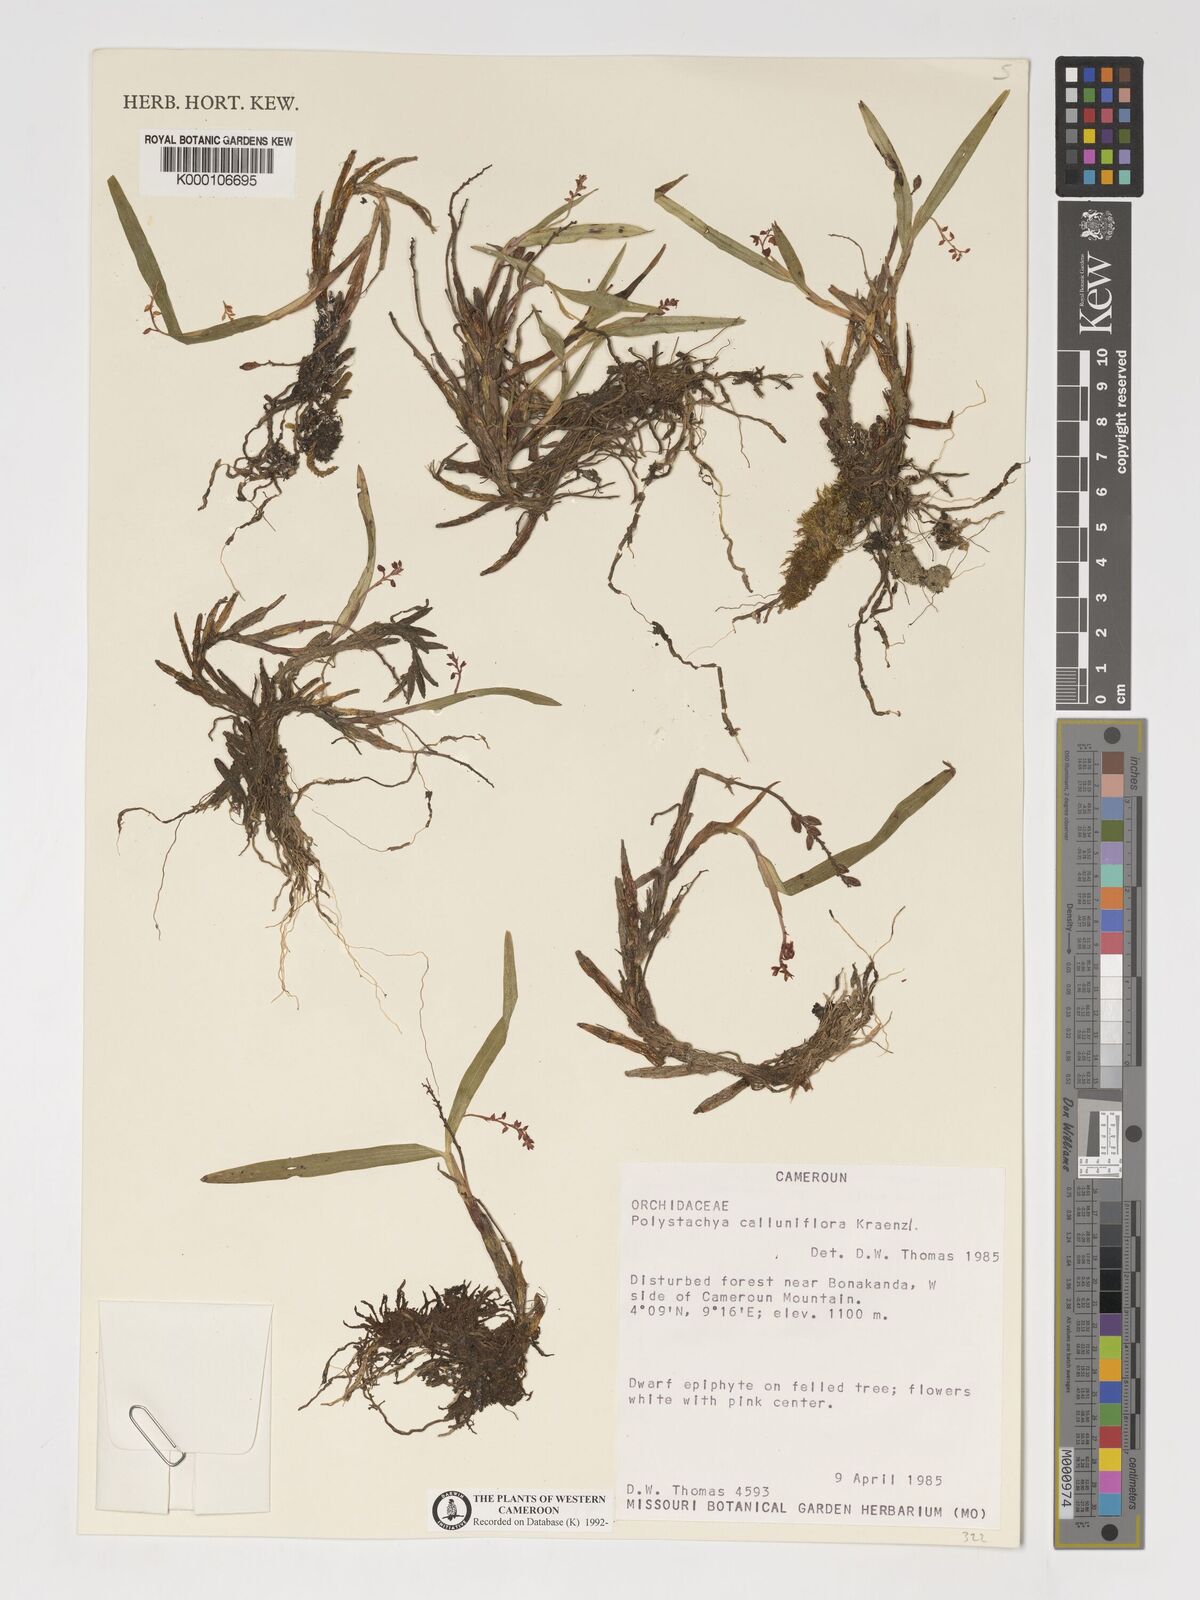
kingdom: Plantae
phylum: Tracheophyta
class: Liliopsida
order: Asparagales
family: Orchidaceae
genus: Polystachya
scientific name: Polystachya calluniflora
